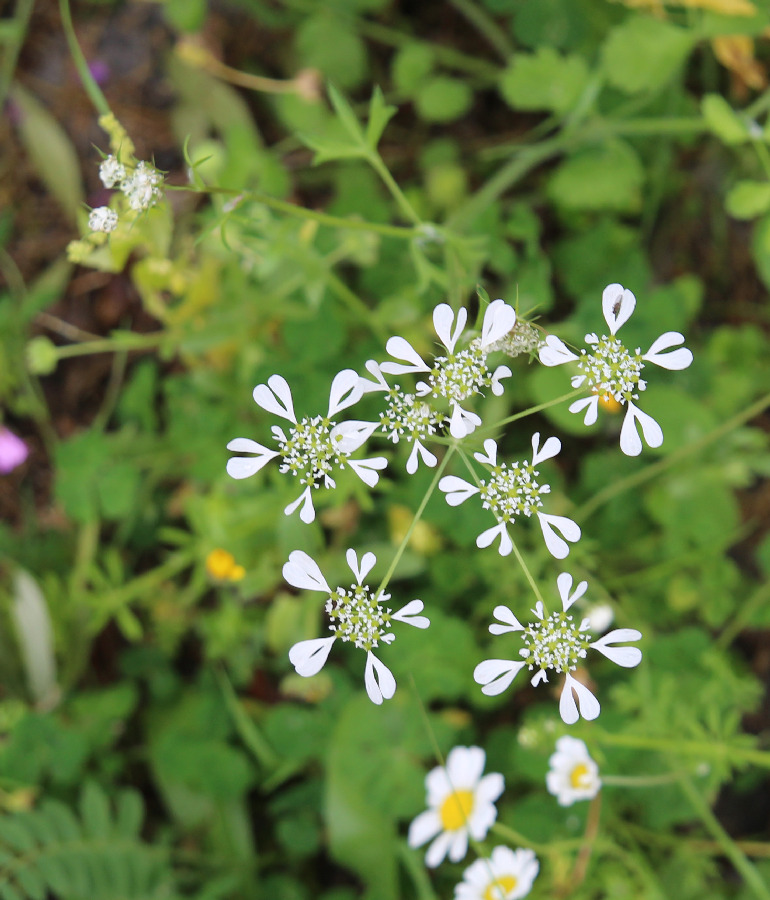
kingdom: Plantae
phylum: Tracheophyta
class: Magnoliopsida
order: Apiales
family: Apiaceae
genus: Tordylium
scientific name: Tordylium apulum
